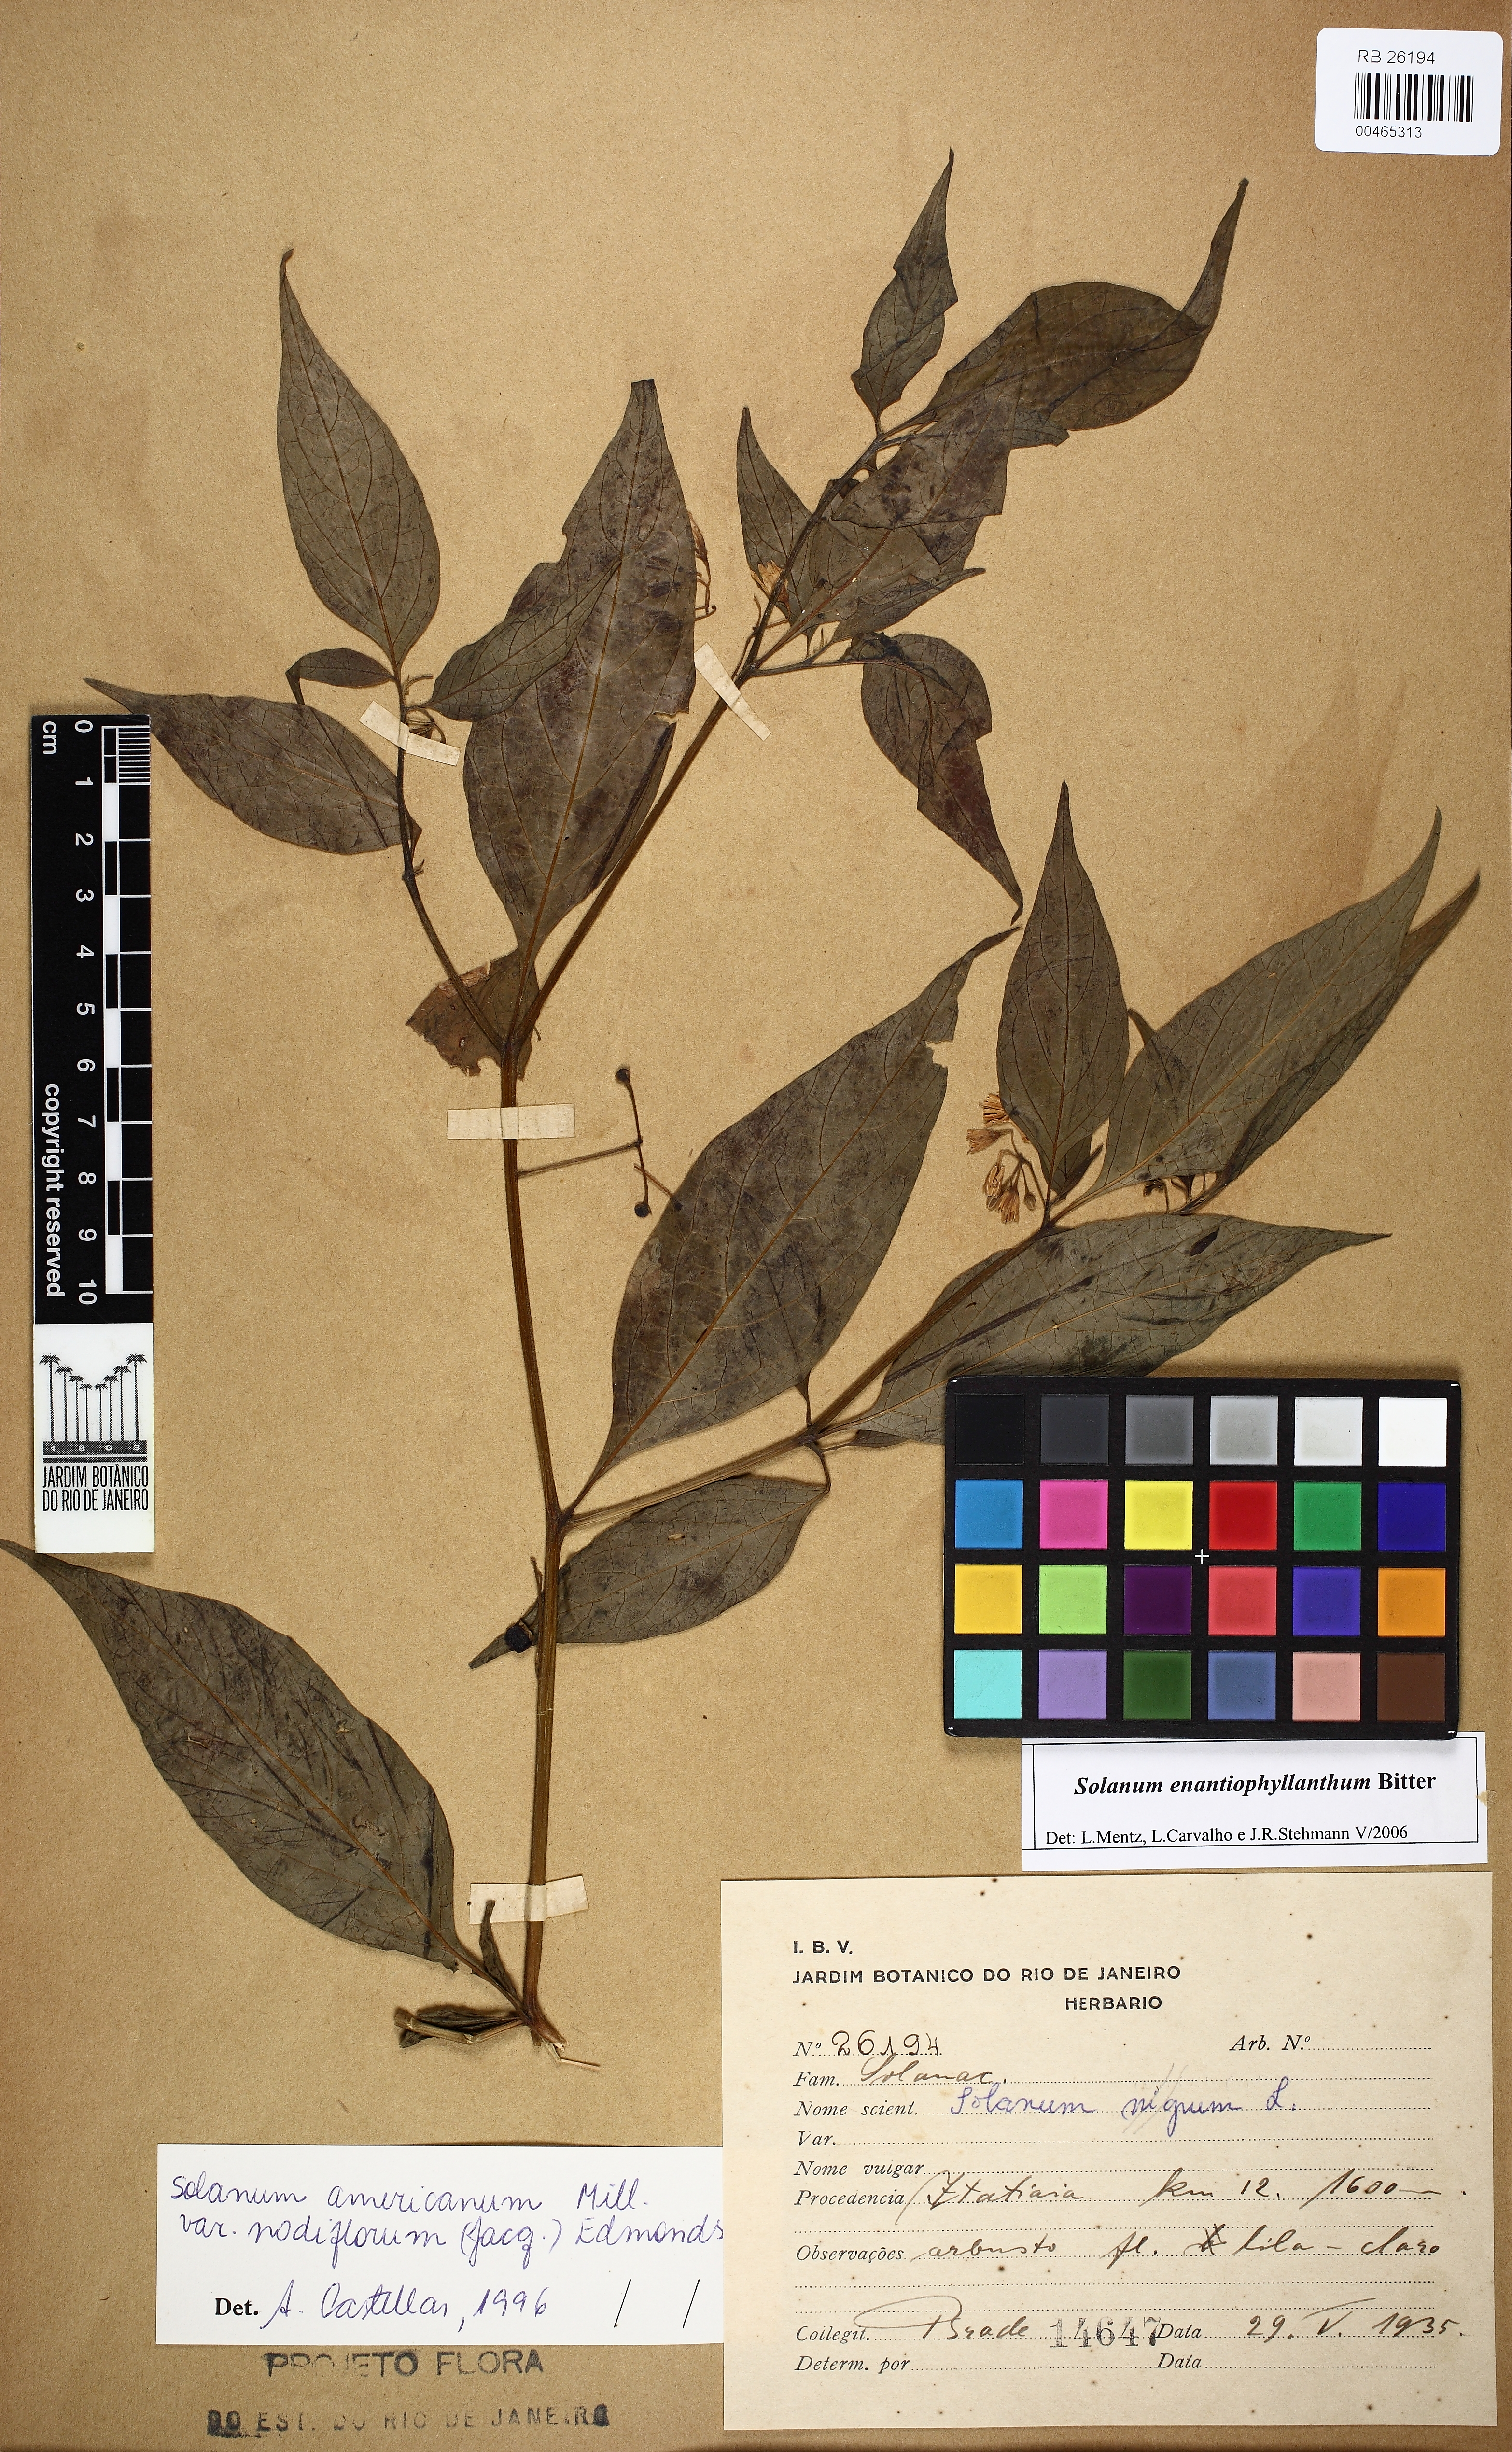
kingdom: Plantae
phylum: Tracheophyta
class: Magnoliopsida
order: Solanales
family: Solanaceae
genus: Solanum
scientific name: Solanum enantiophyllanthum
